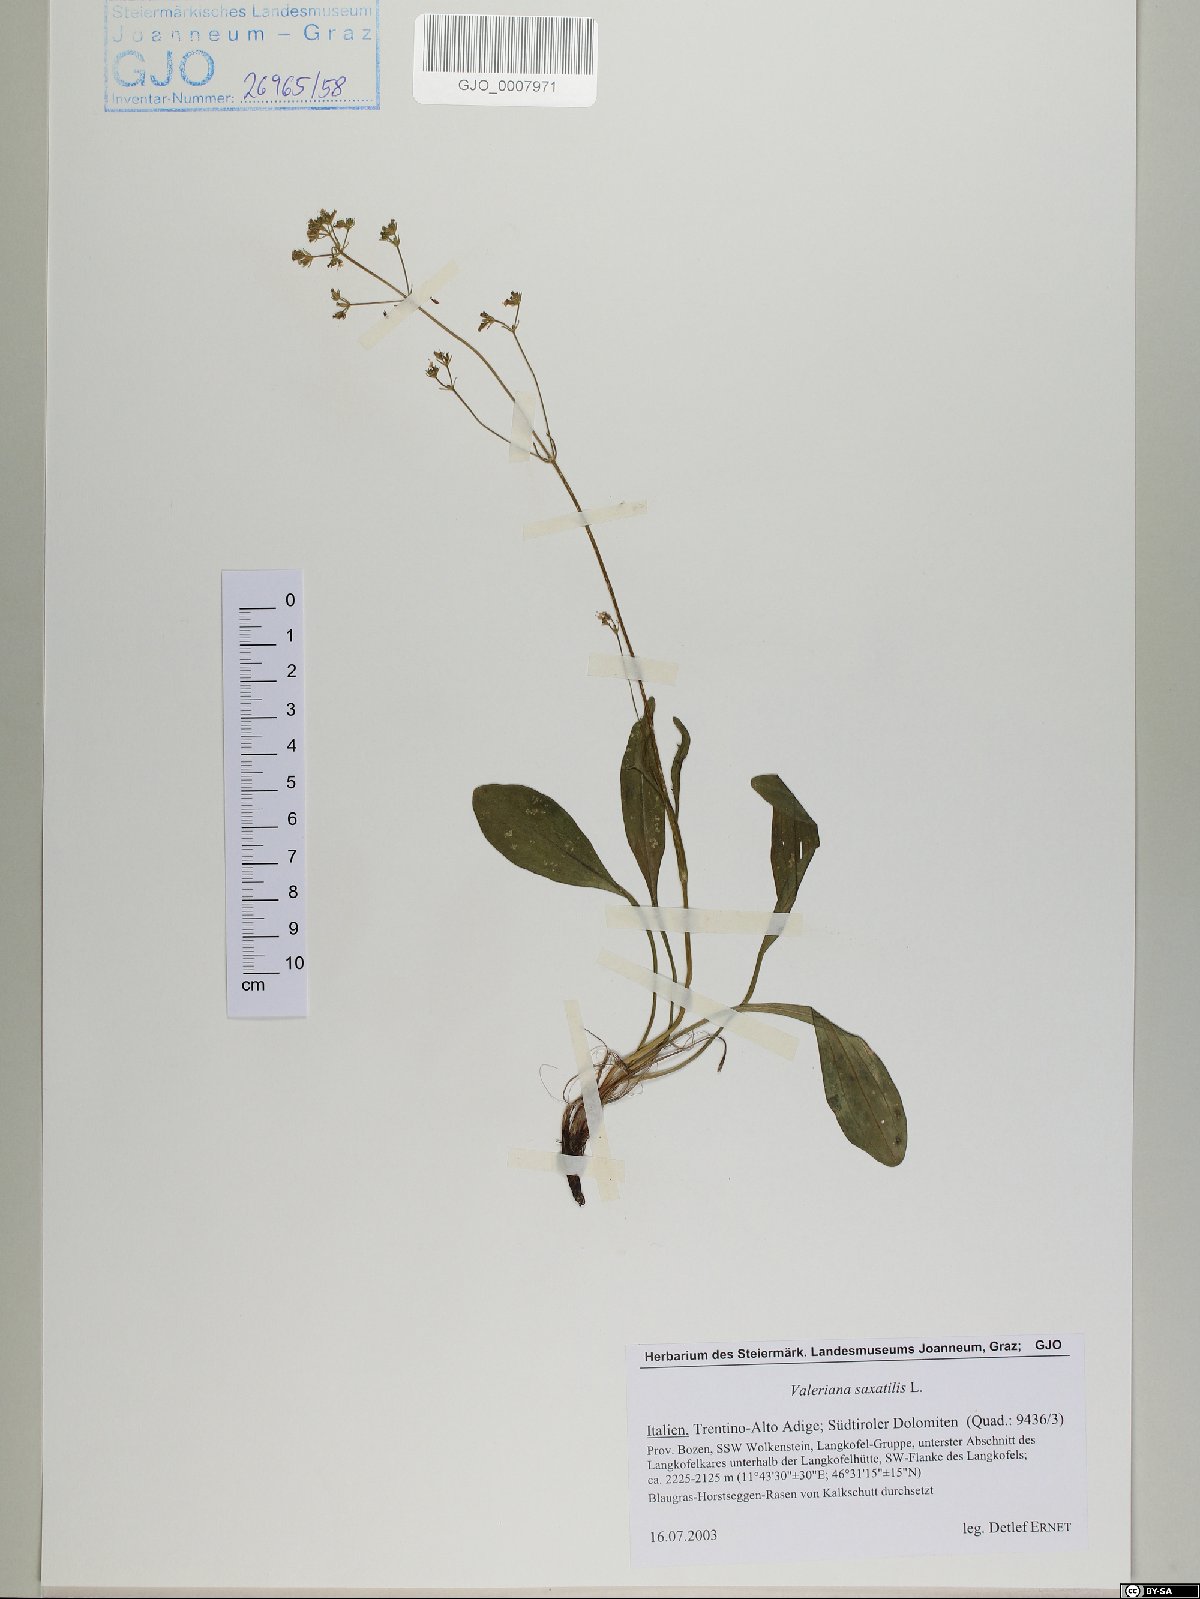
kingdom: Plantae
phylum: Tracheophyta
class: Magnoliopsida
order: Dipsacales
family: Caprifoliaceae
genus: Valeriana
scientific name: Valeriana saxatilis
